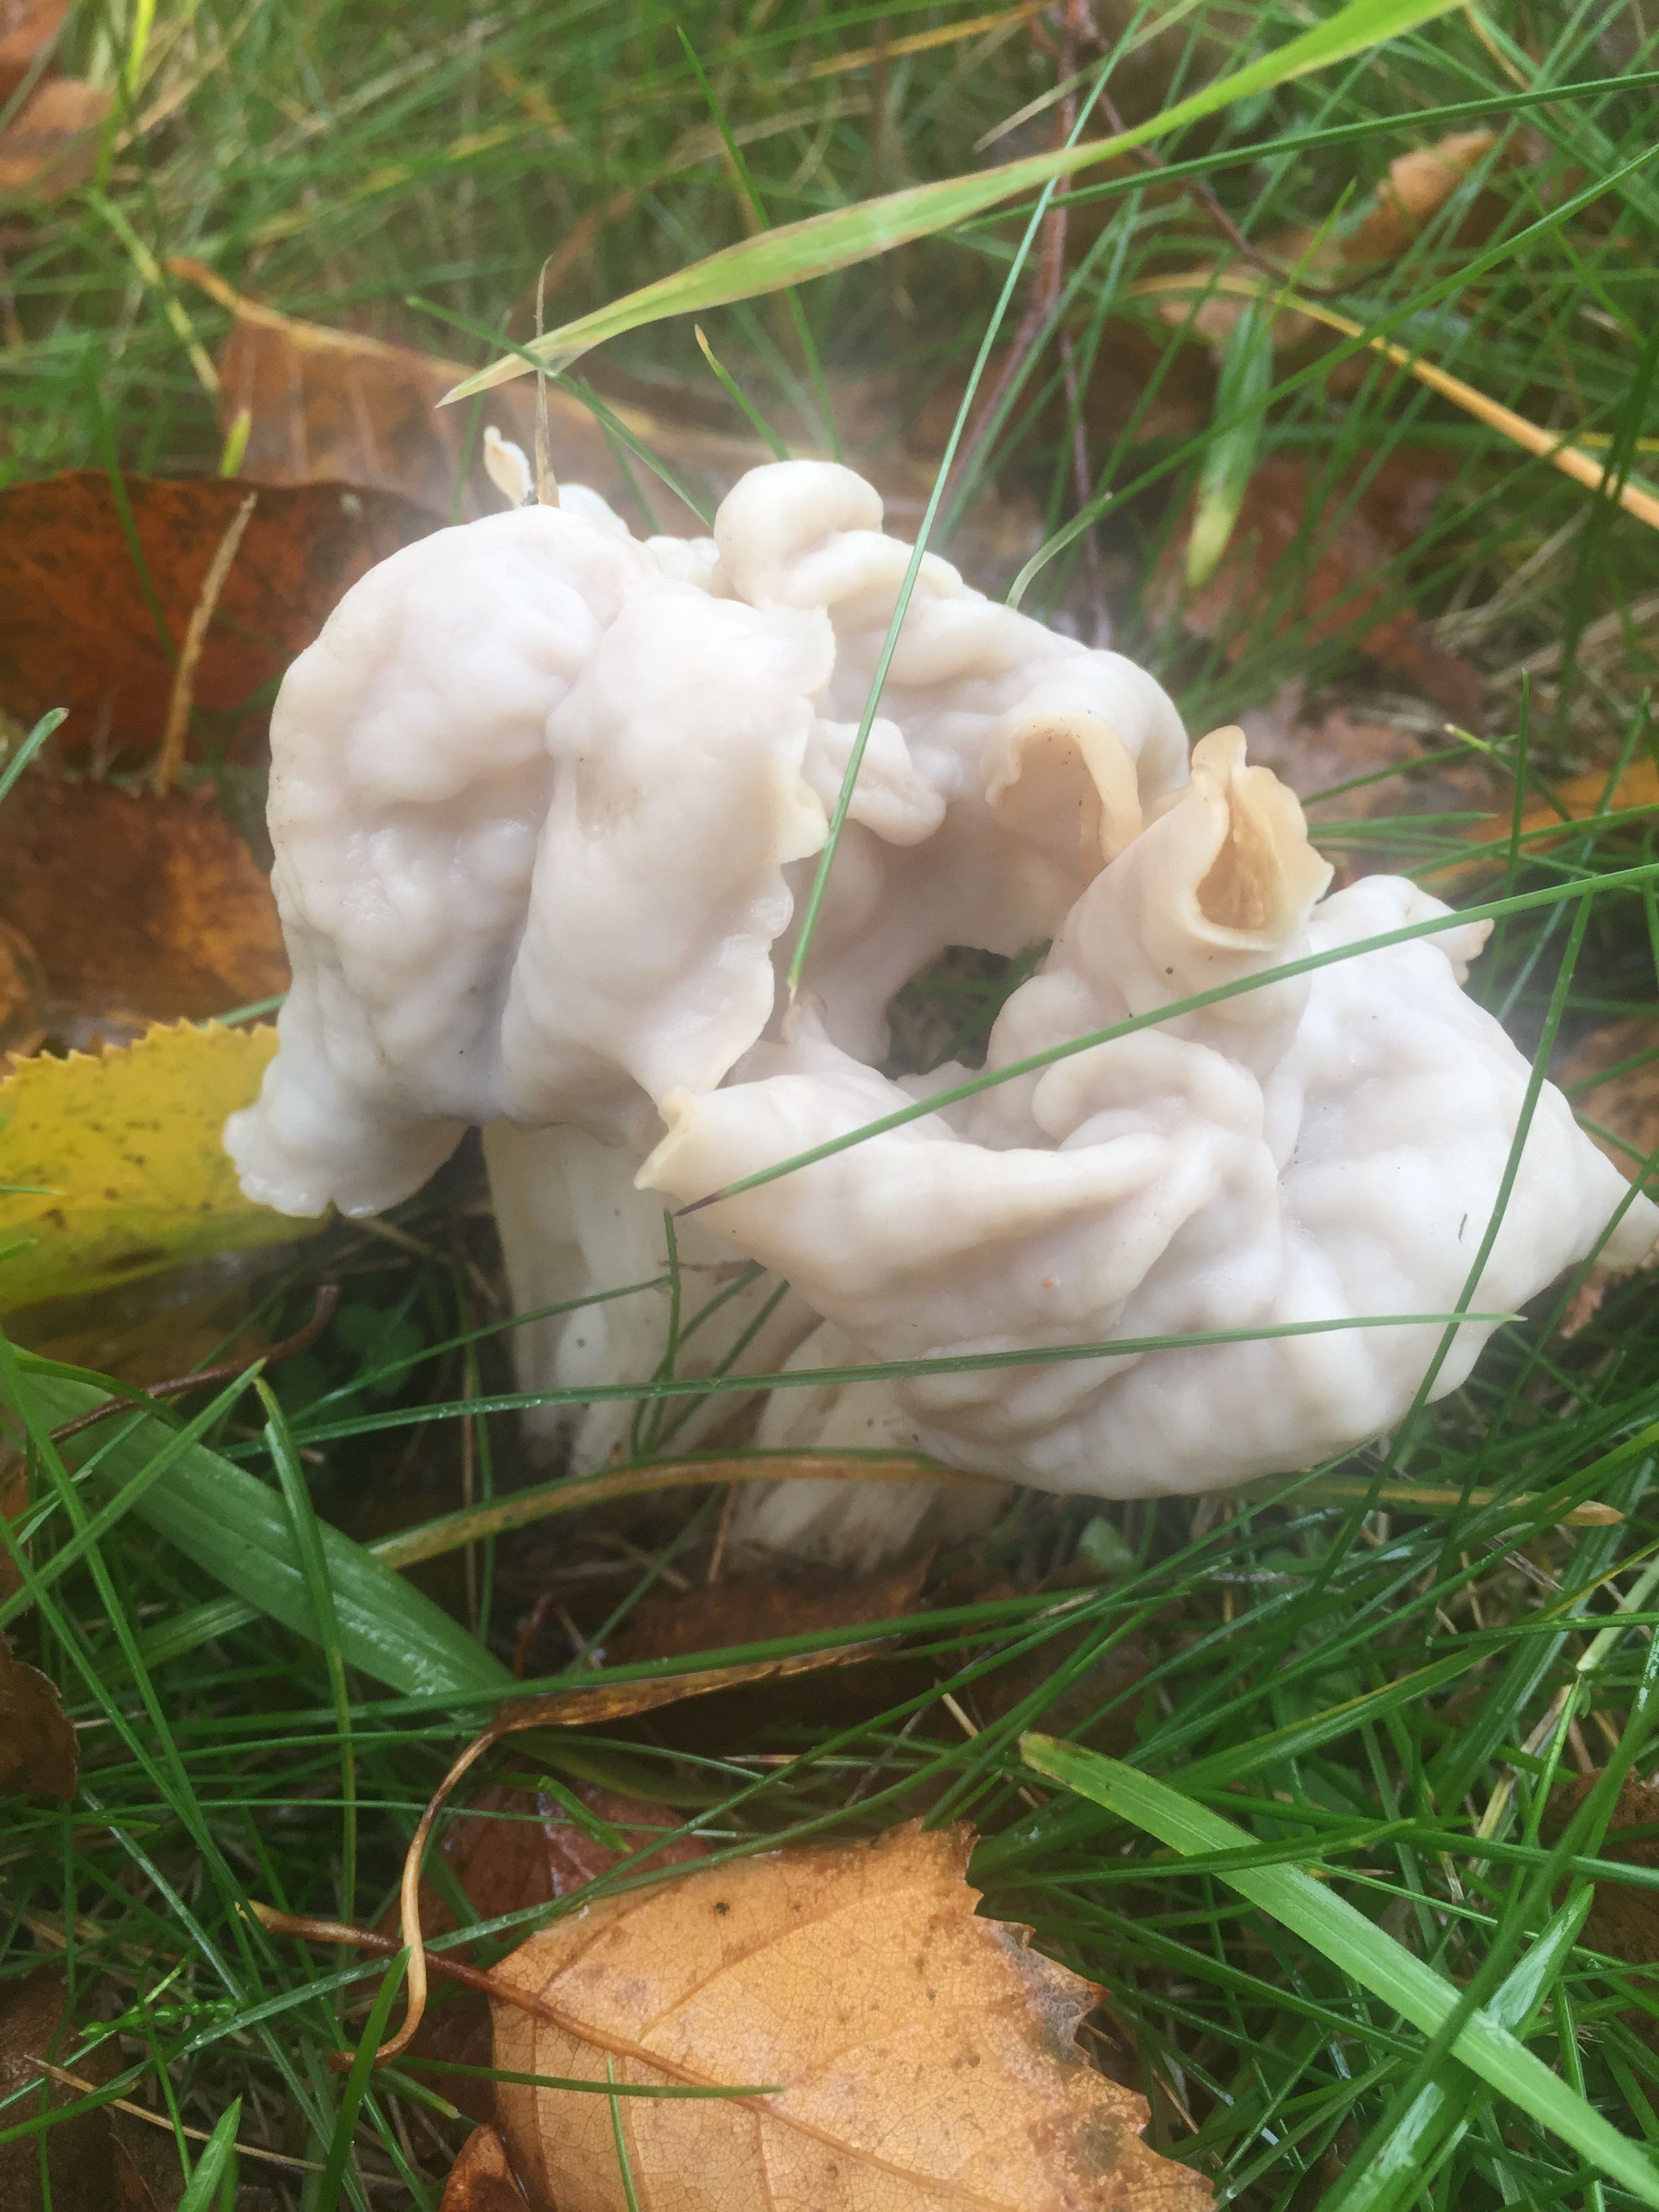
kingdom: Fungi
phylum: Ascomycota
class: Pezizomycetes
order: Pezizales
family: Helvellaceae
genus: Helvella
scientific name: Helvella crispa
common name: kruset foldhat
